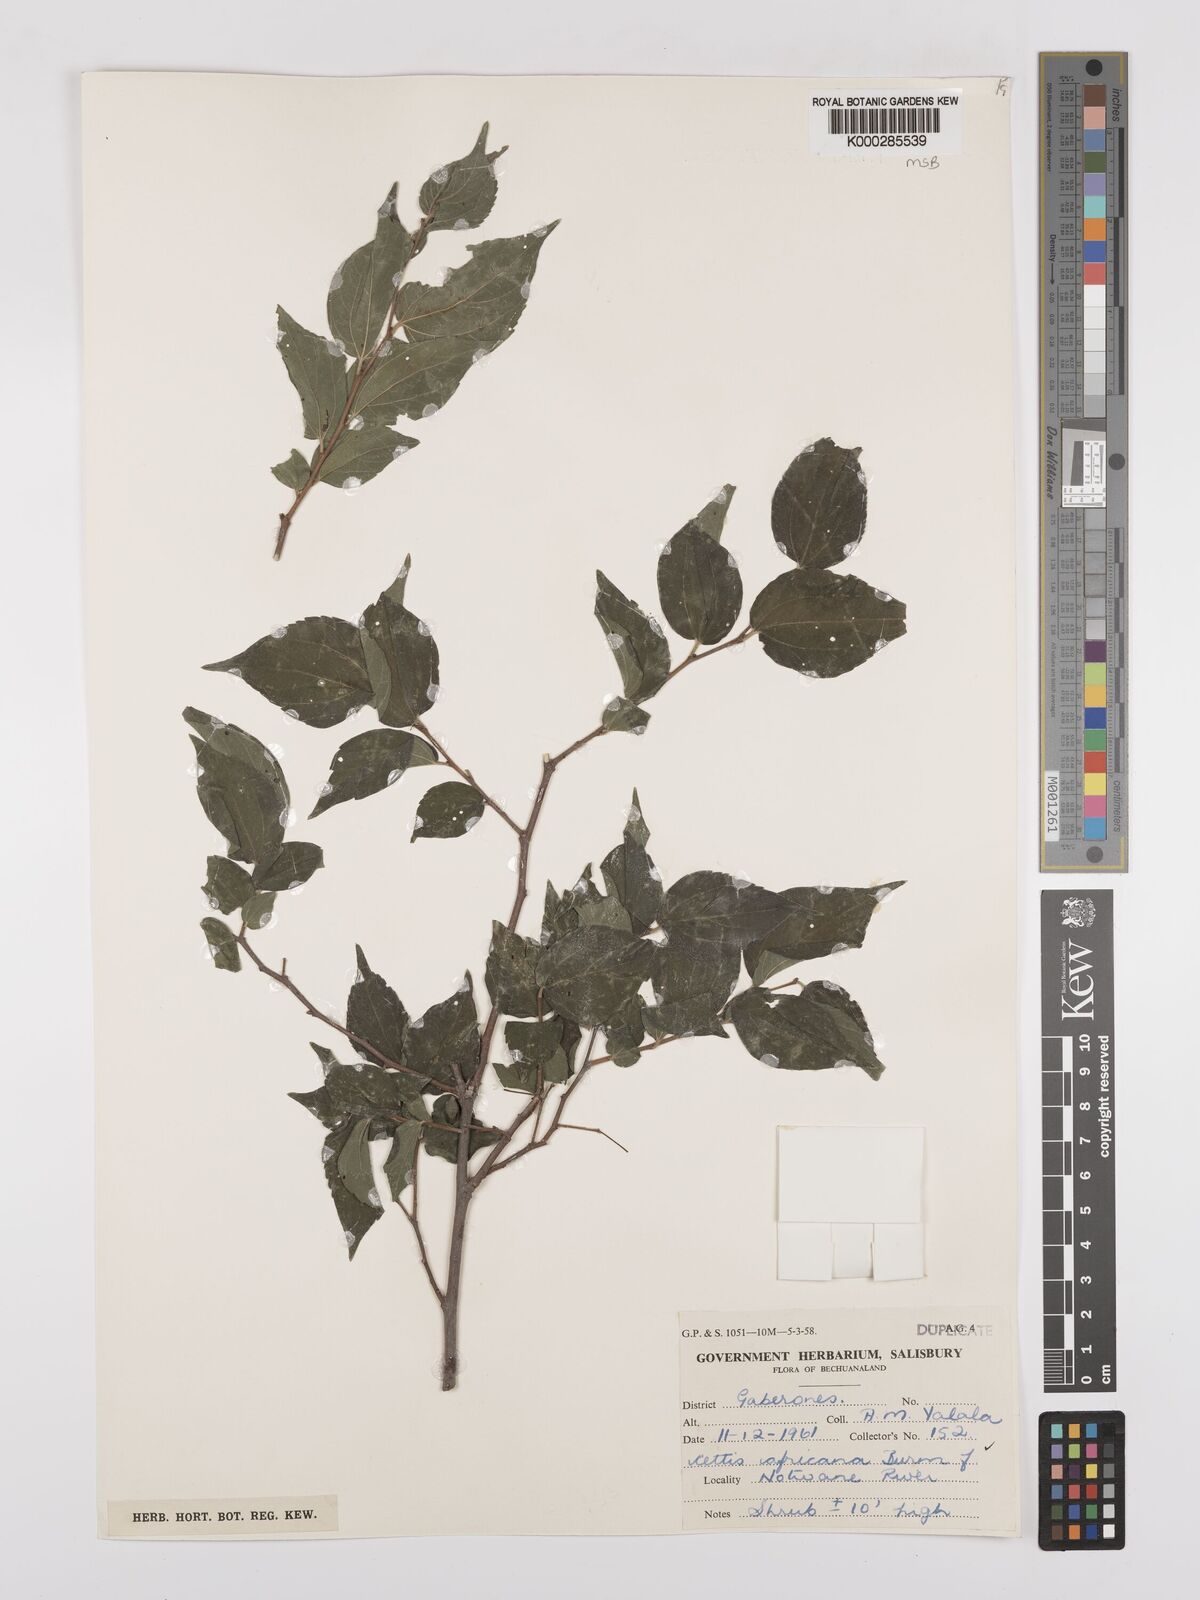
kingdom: Plantae
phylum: Tracheophyta
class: Magnoliopsida
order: Rosales
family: Cannabaceae
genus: Celtis
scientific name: Celtis africana
